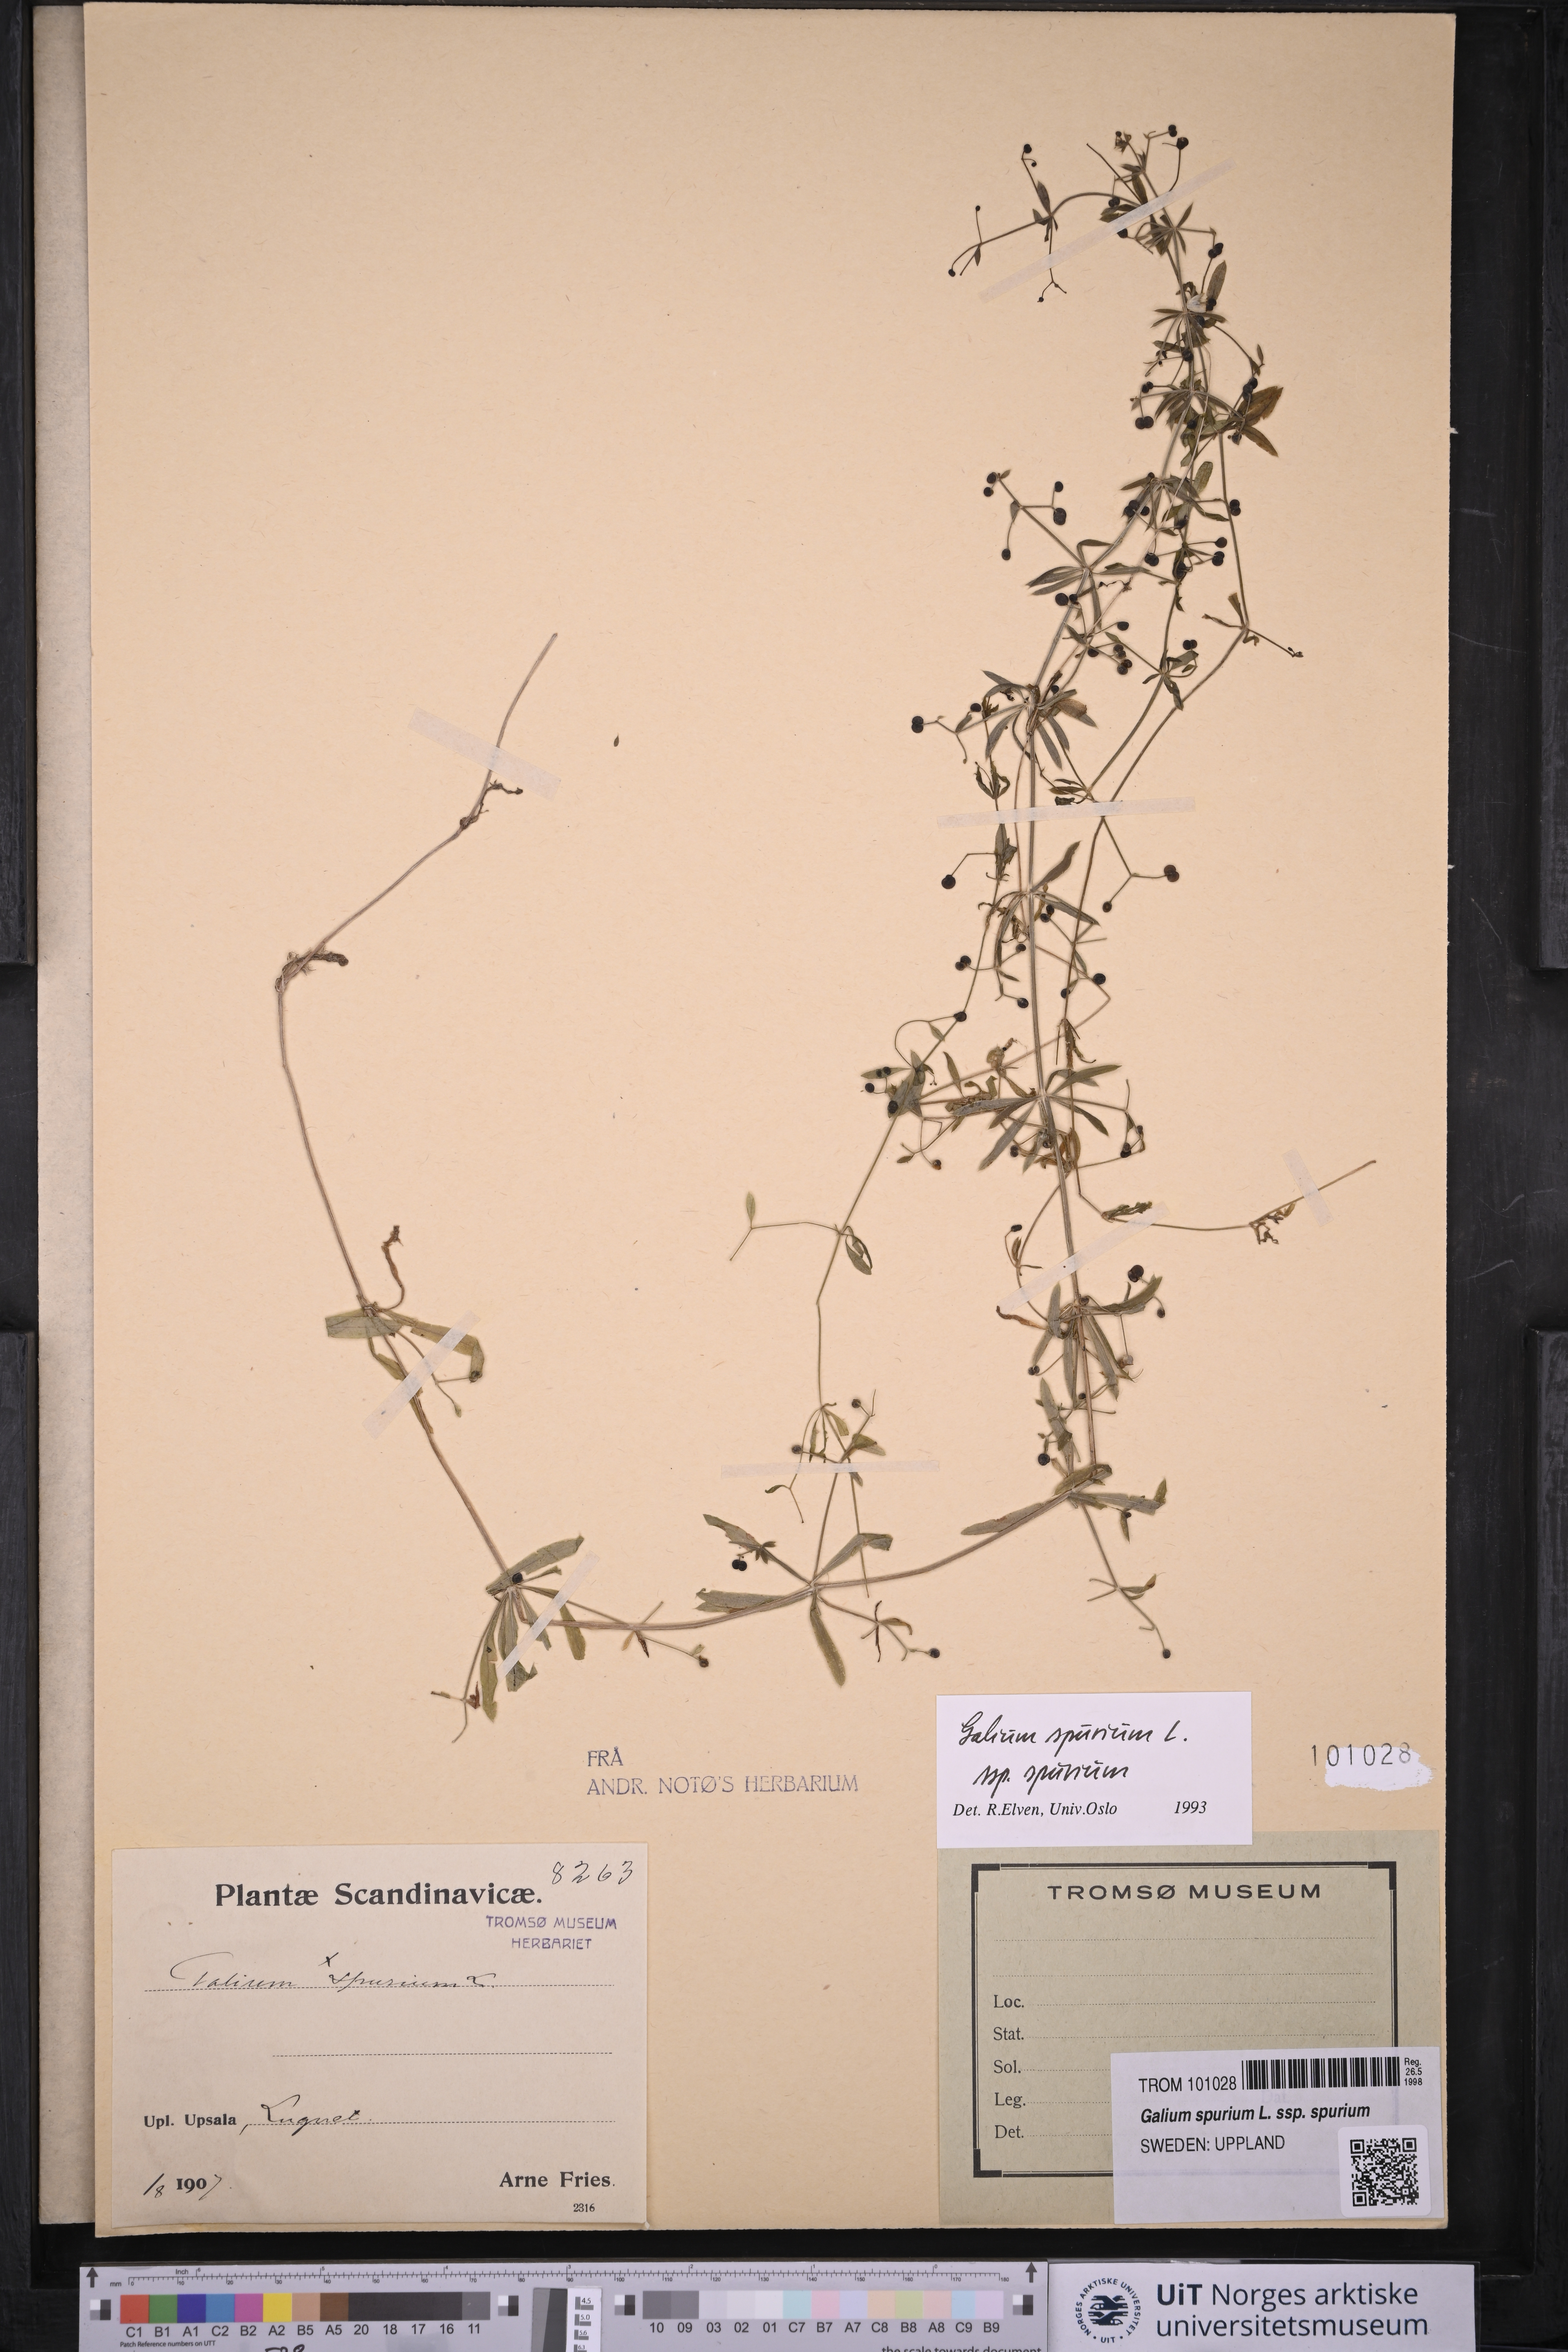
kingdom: Plantae
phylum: Tracheophyta
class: Magnoliopsida
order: Gentianales
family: Rubiaceae
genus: Galium
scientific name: Galium spurium
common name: False cleavers
